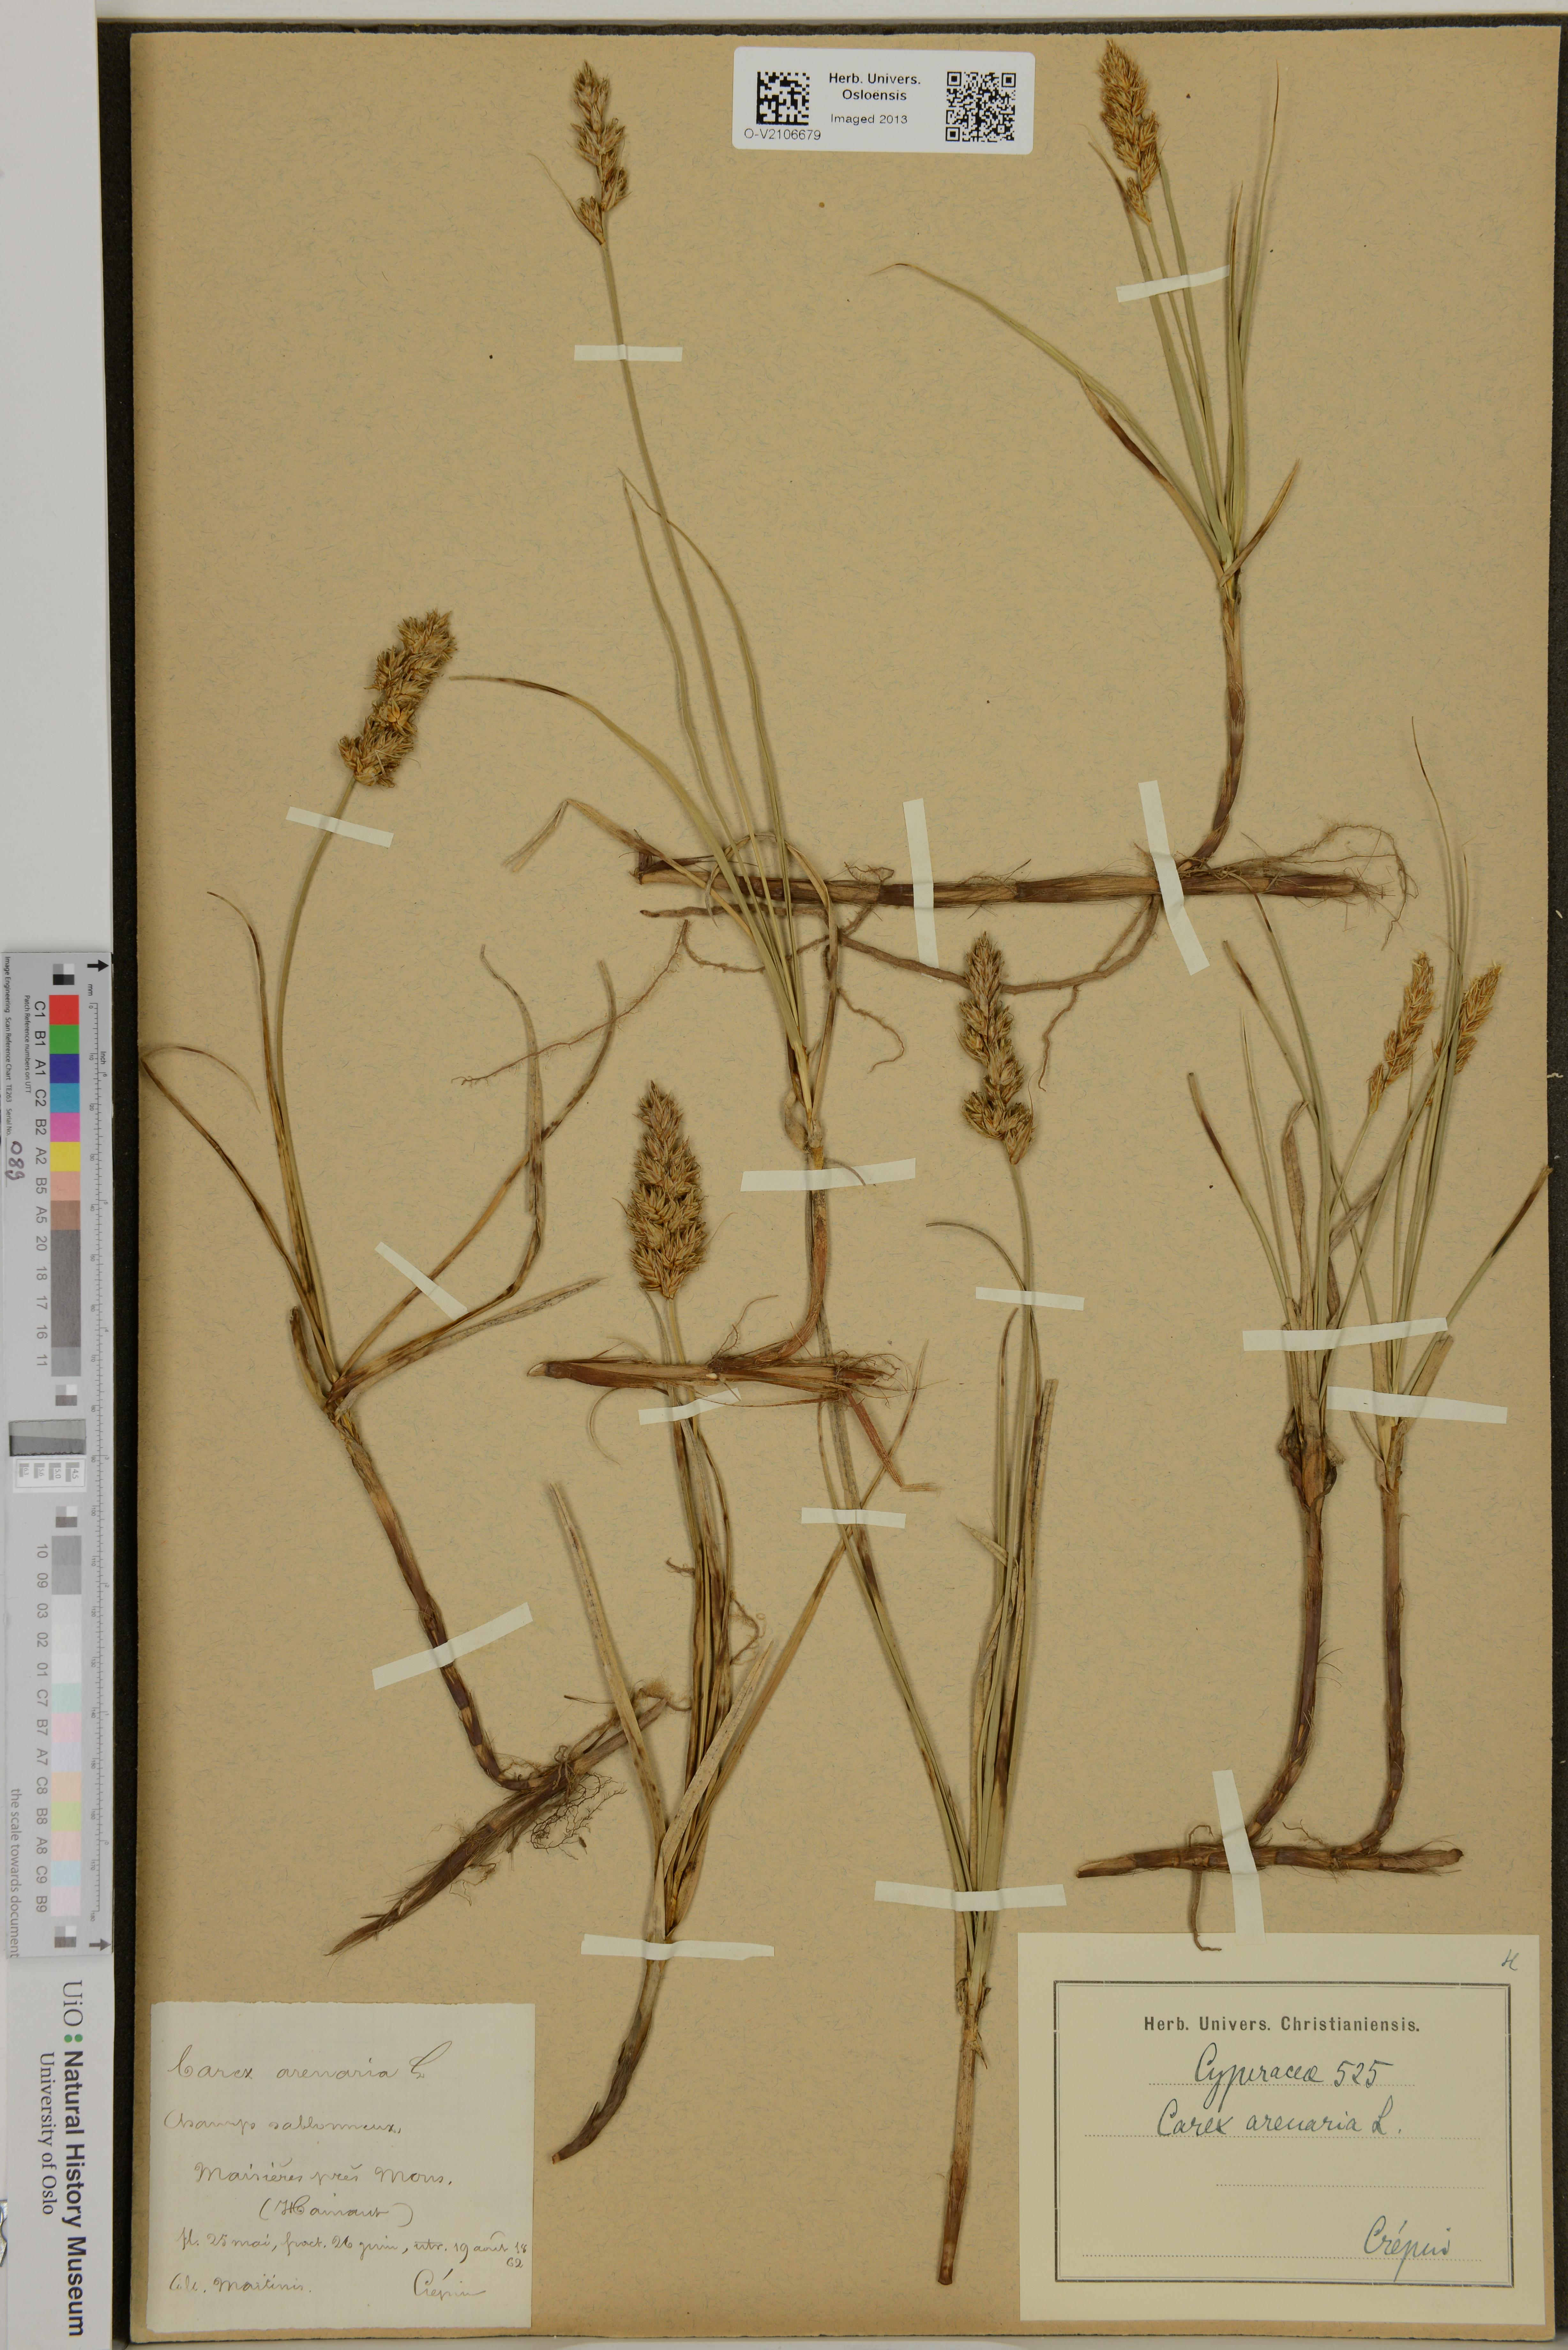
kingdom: Plantae
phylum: Tracheophyta
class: Liliopsida
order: Poales
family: Cyperaceae
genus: Carex
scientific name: Carex arenaria
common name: Sand sedge
